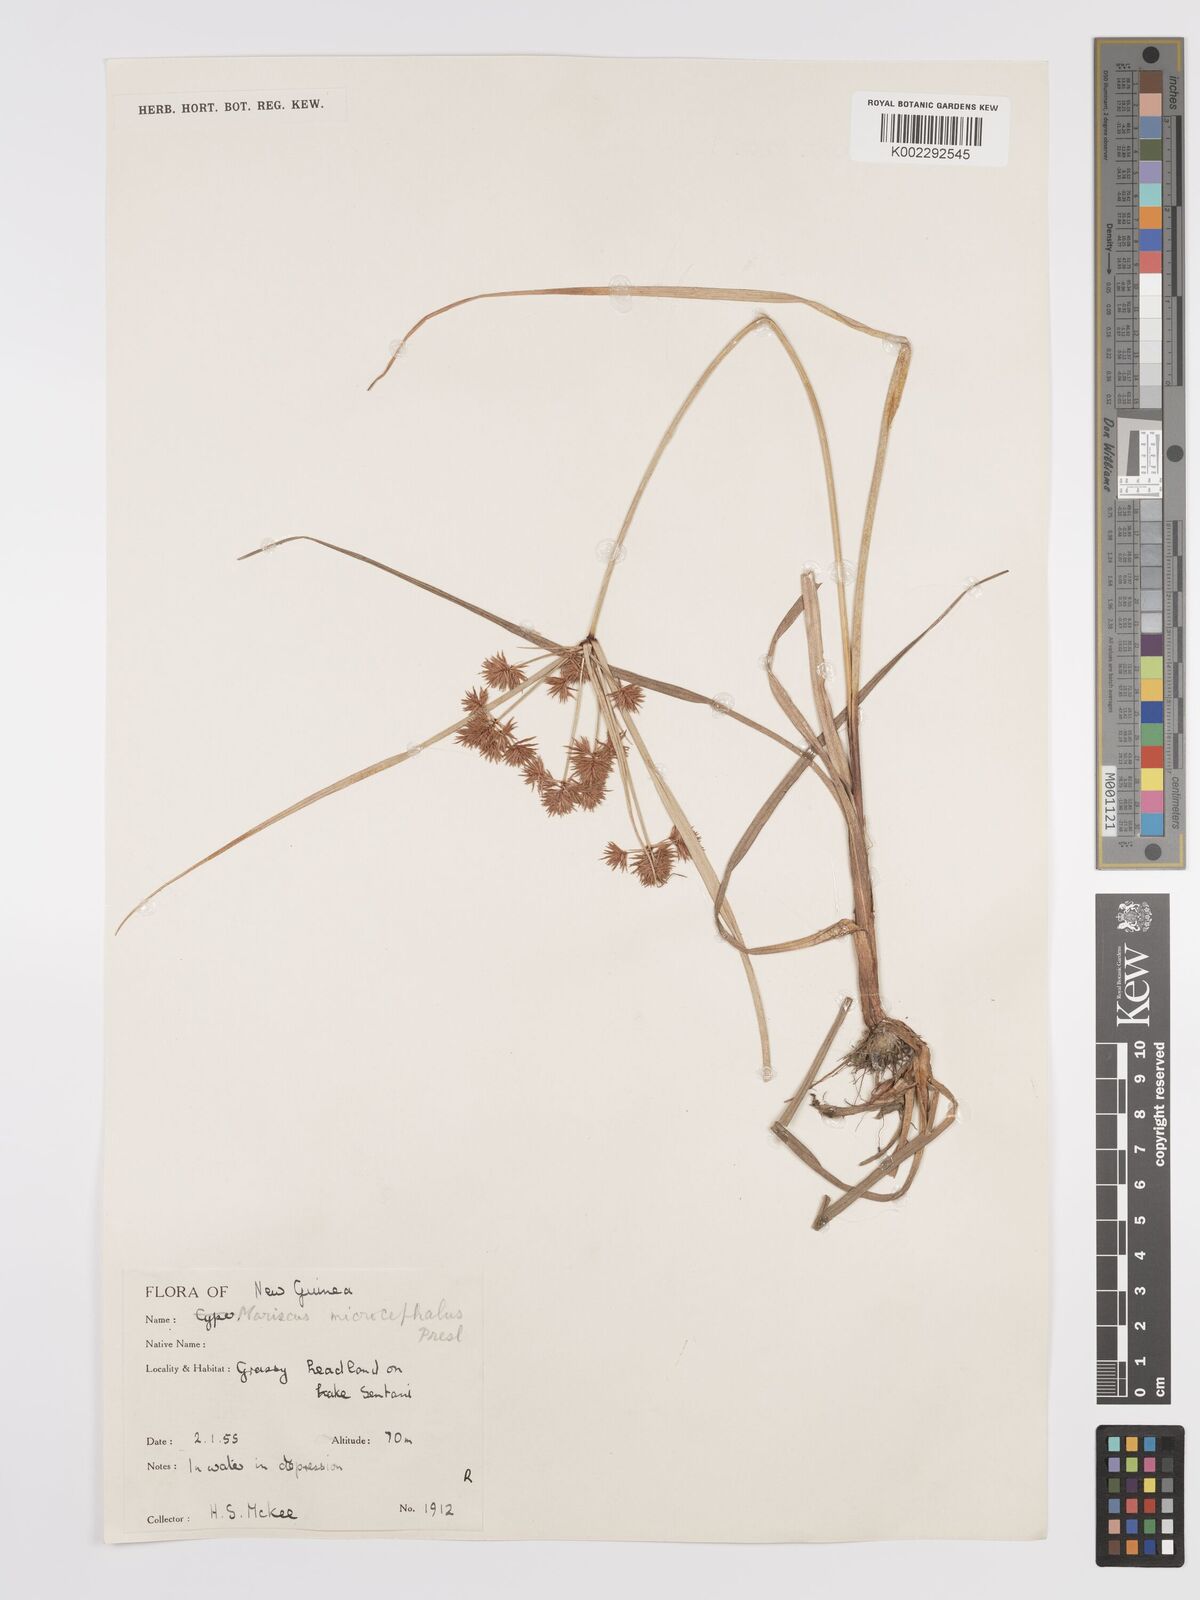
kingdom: Plantae
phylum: Tracheophyta
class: Liliopsida
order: Poales
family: Cyperaceae
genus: Cyperus
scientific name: Cyperus compactus
